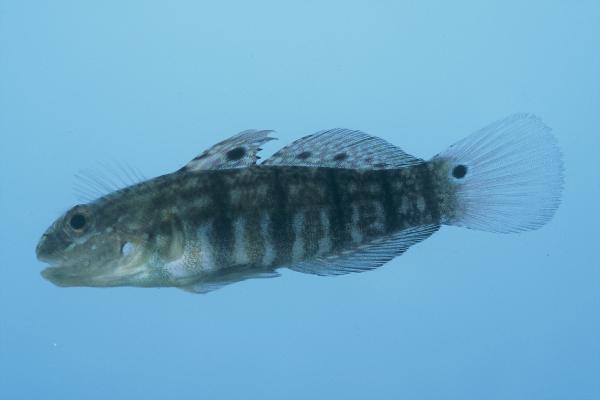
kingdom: Animalia
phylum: Chordata
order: Perciformes
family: Gobiidae
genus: Amblygobius
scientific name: Amblygobius semicinctus
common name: Halfbarred goby
